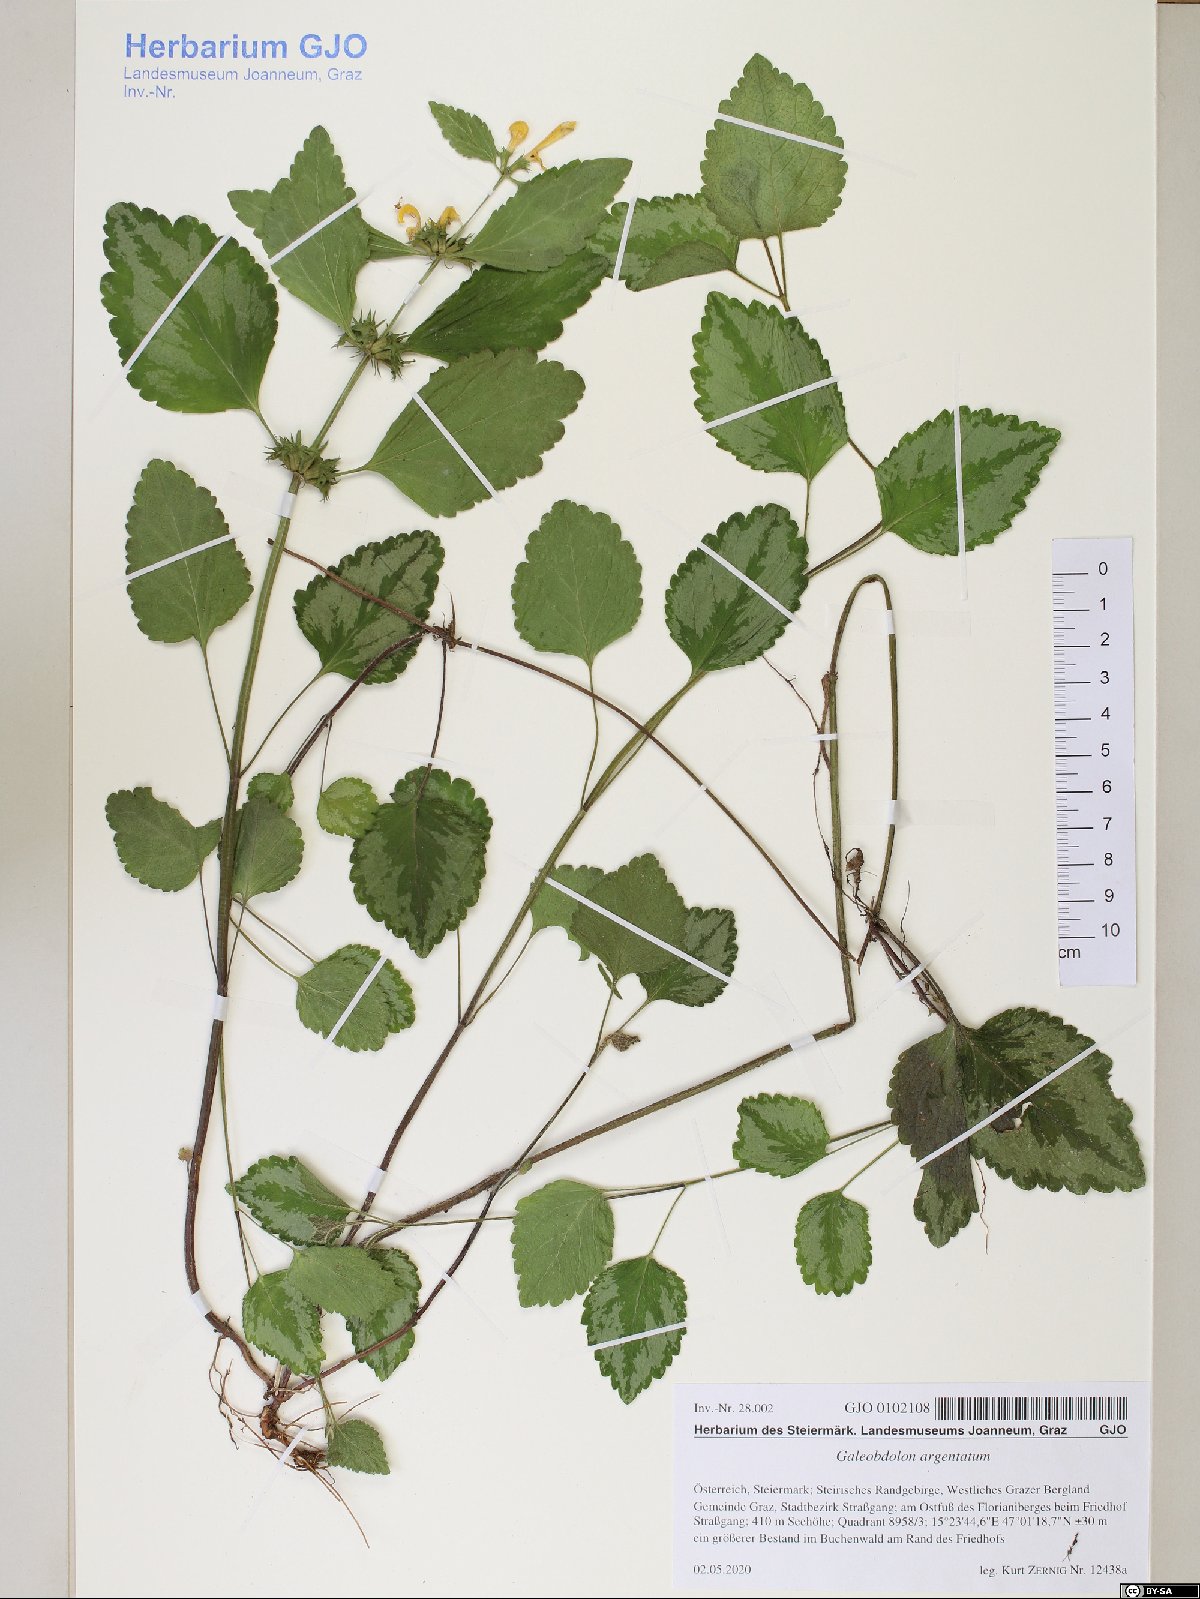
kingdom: Plantae
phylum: Tracheophyta
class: Magnoliopsida
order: Lamiales
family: Lamiaceae
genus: Lamium
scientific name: Lamium galeobdolon
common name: Yellow archangel
